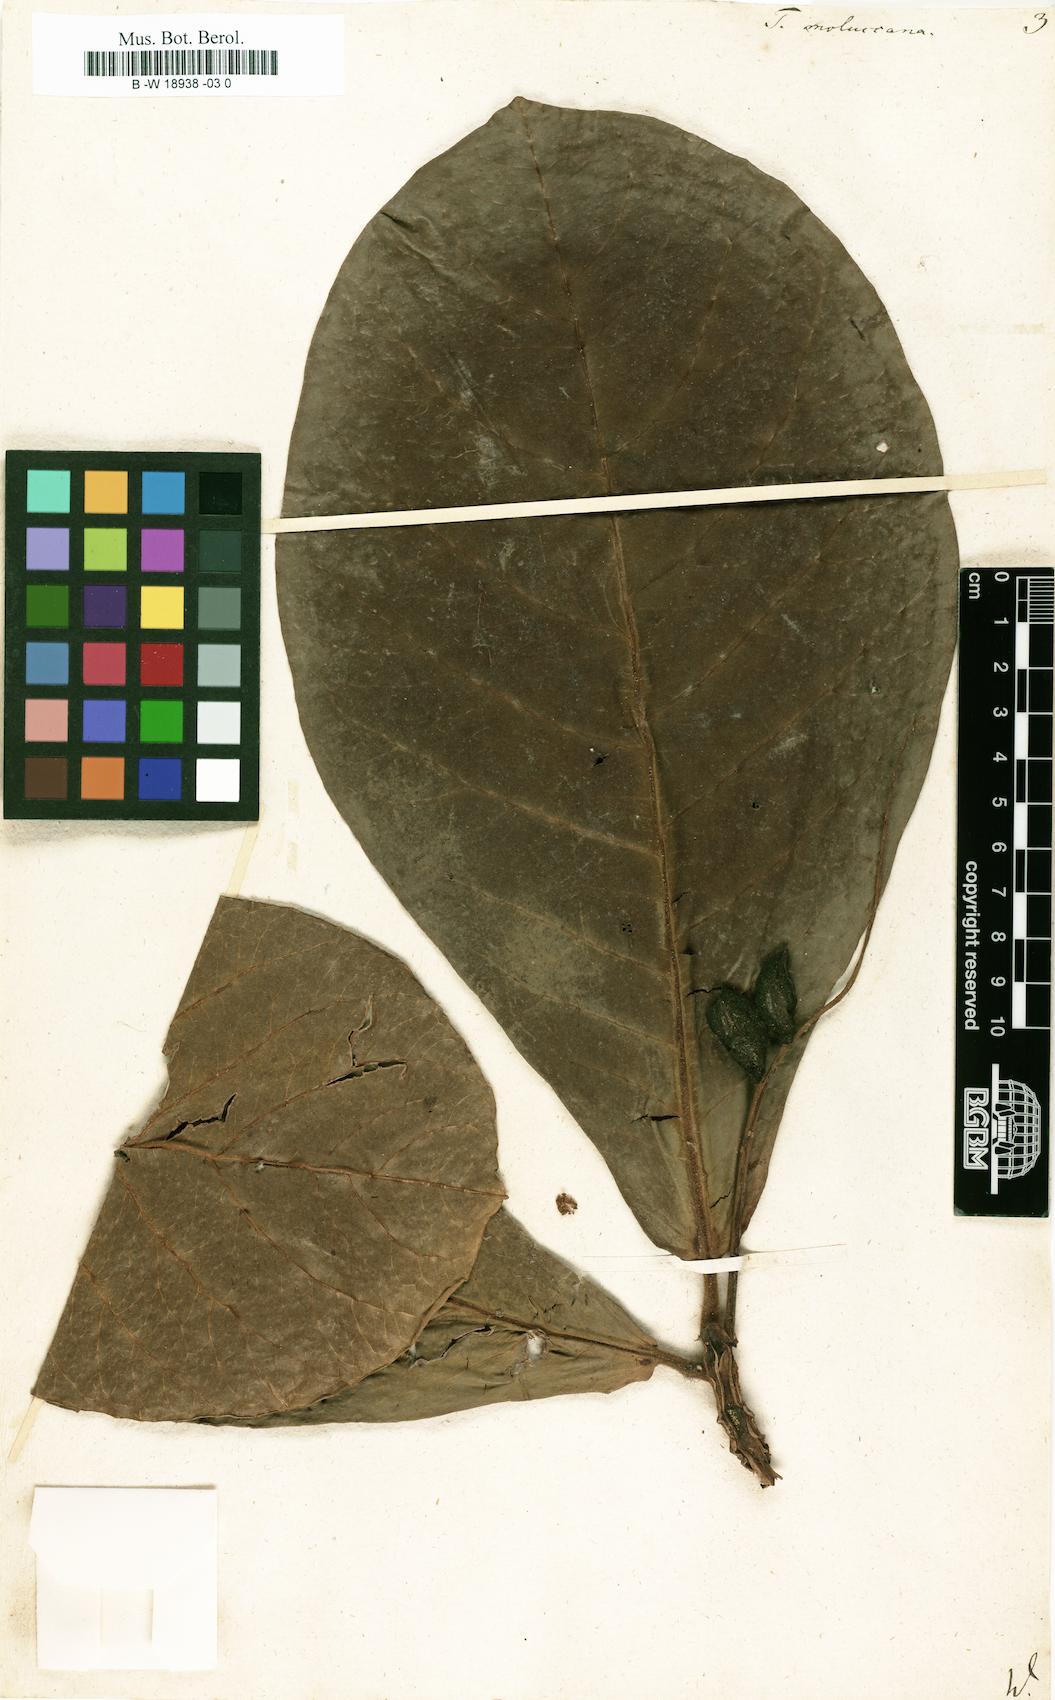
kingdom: Plantae
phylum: Tracheophyta
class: Magnoliopsida
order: Myrtales
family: Combretaceae
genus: Terminalia
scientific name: Terminalia catappa
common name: Tropical almond
